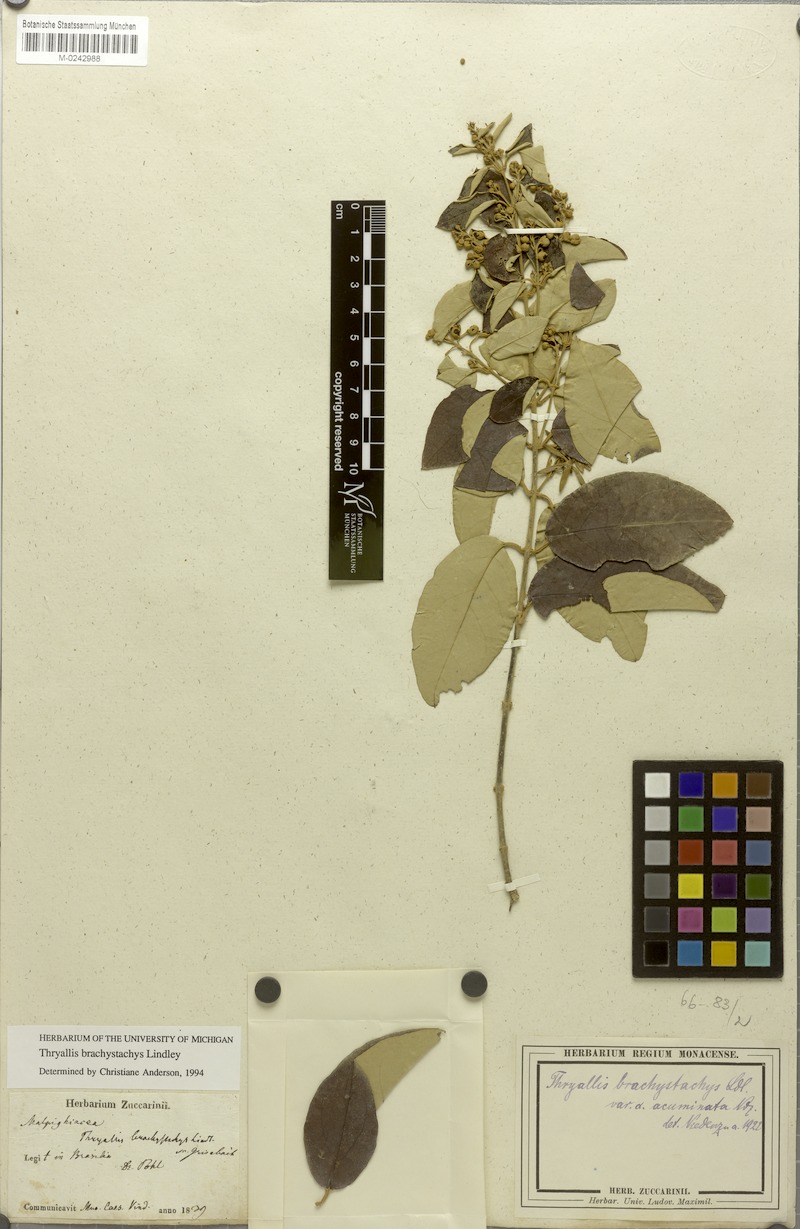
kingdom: Plantae
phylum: Tracheophyta
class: Magnoliopsida
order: Malpighiales
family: Malpighiaceae
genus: Thryallis
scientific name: Thryallis brachystachys
